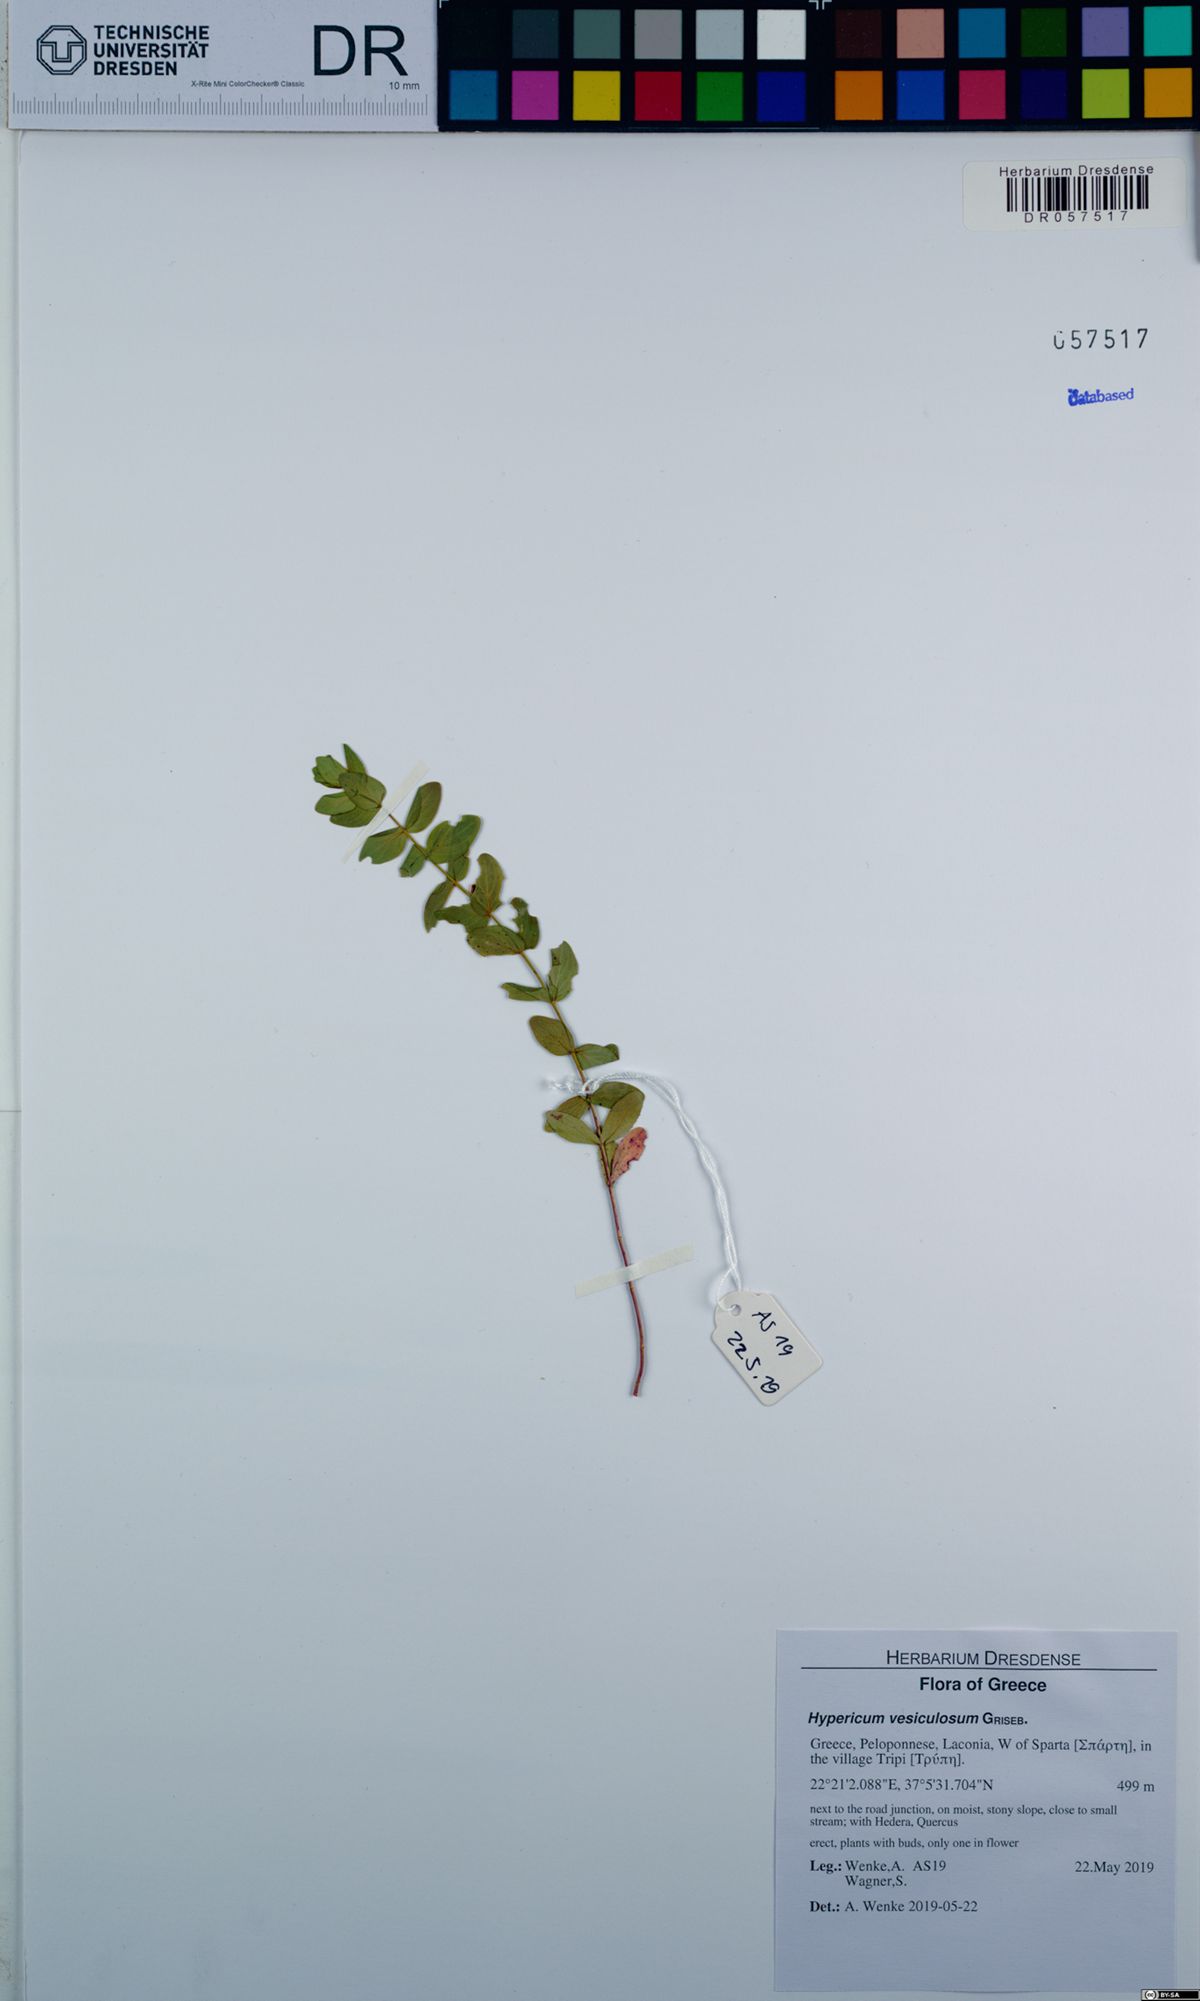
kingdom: Plantae
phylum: Tracheophyta
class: Magnoliopsida
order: Malpighiales
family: Hypericaceae
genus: Hypericum
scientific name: Hypericum vesiculosum
